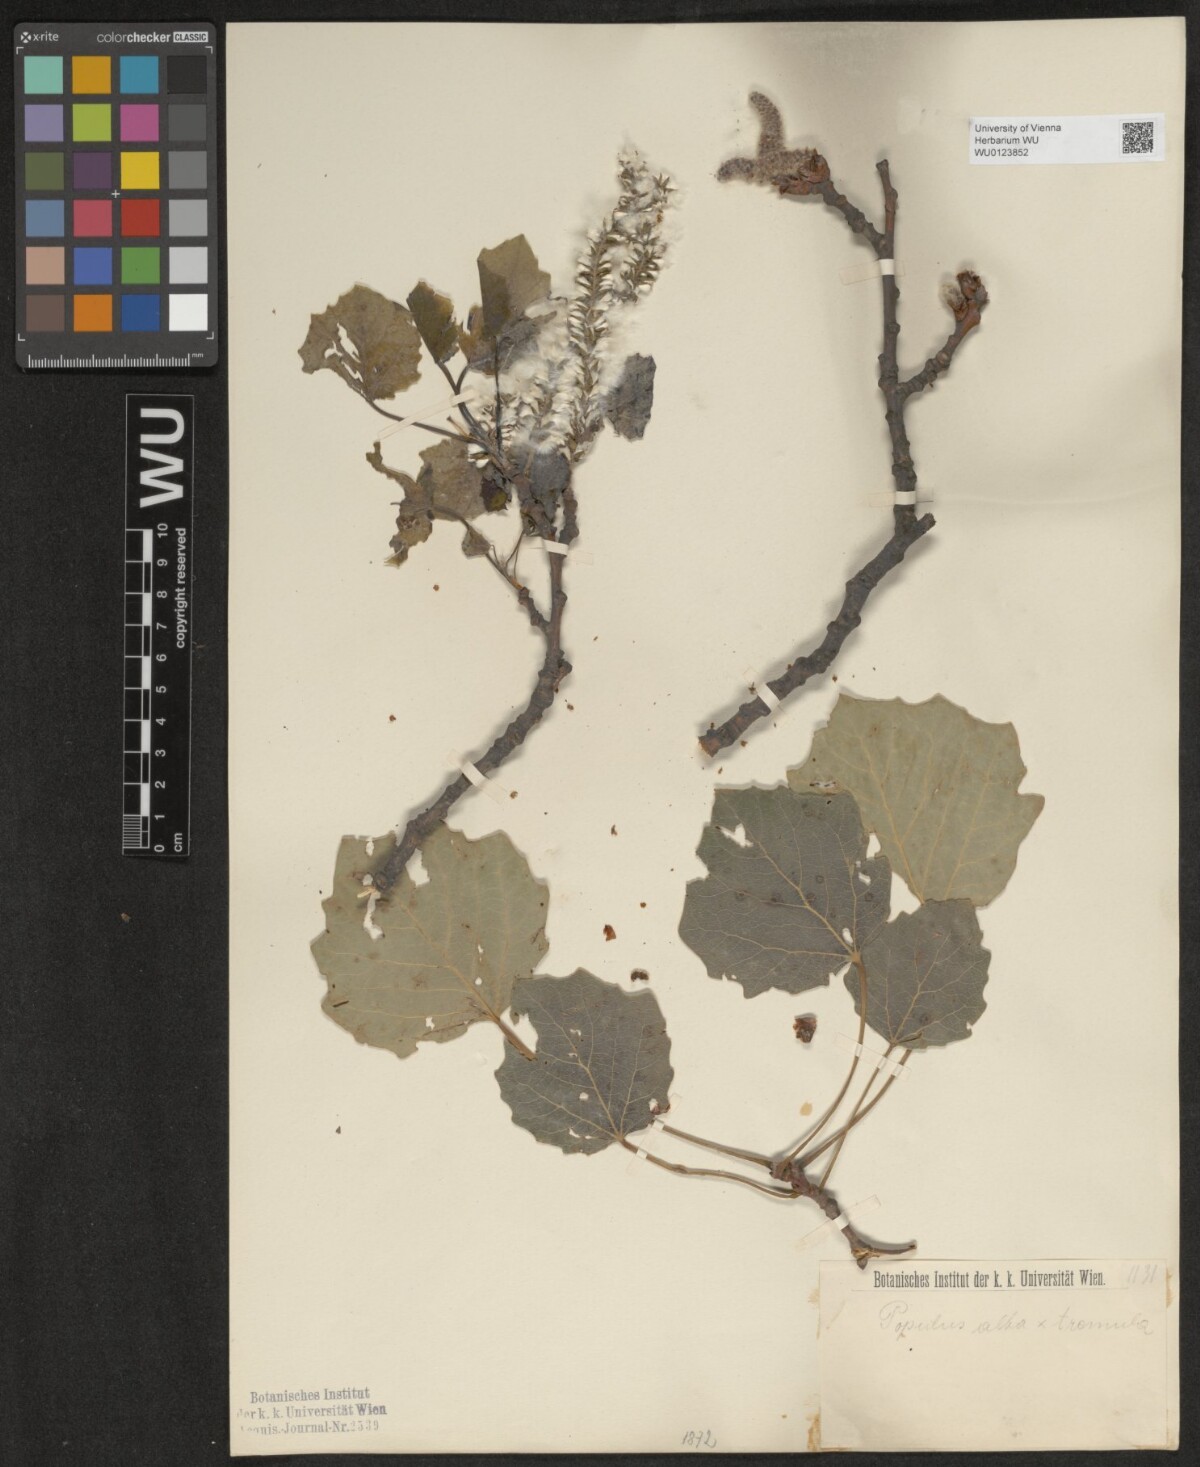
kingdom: Plantae
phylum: Tracheophyta
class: Magnoliopsida
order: Malpighiales
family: Salicaceae
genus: Populus
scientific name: Populus canescens
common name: Gray poplar
